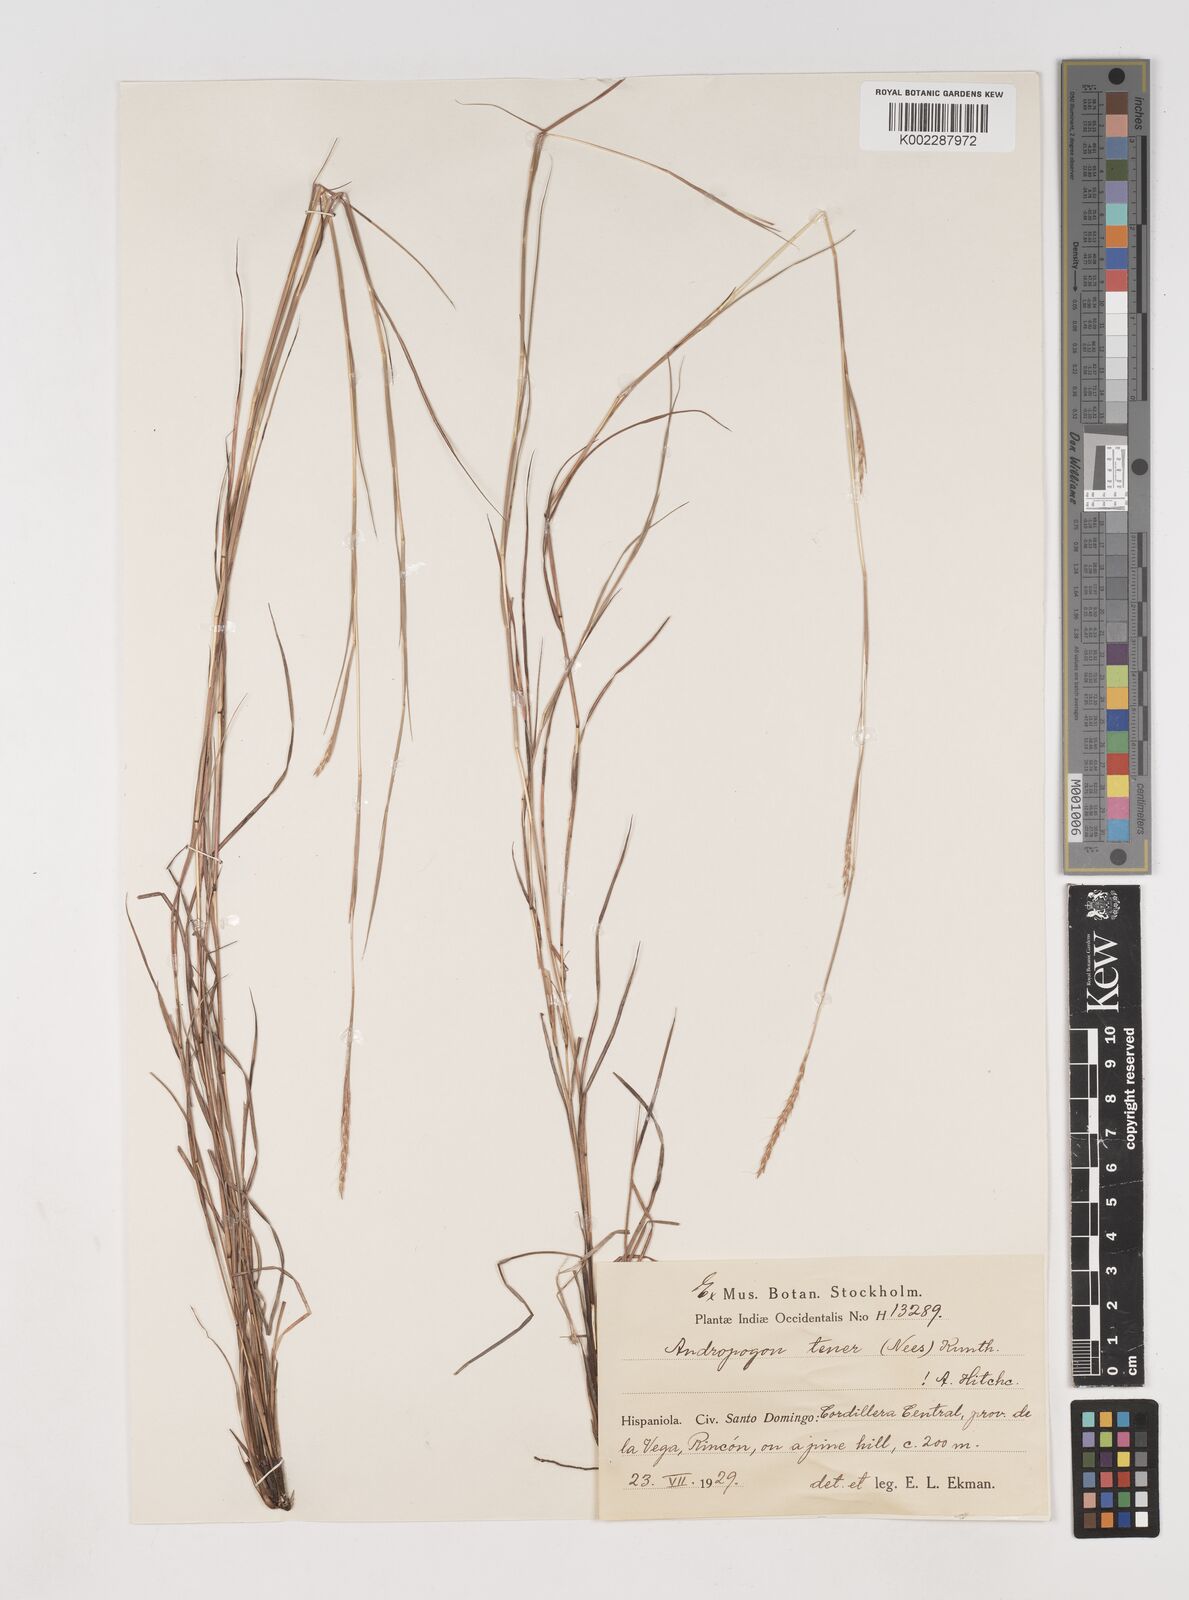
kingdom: Plantae
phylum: Tracheophyta
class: Liliopsida
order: Poales
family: Poaceae
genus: Andropogon
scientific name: Andropogon tener
